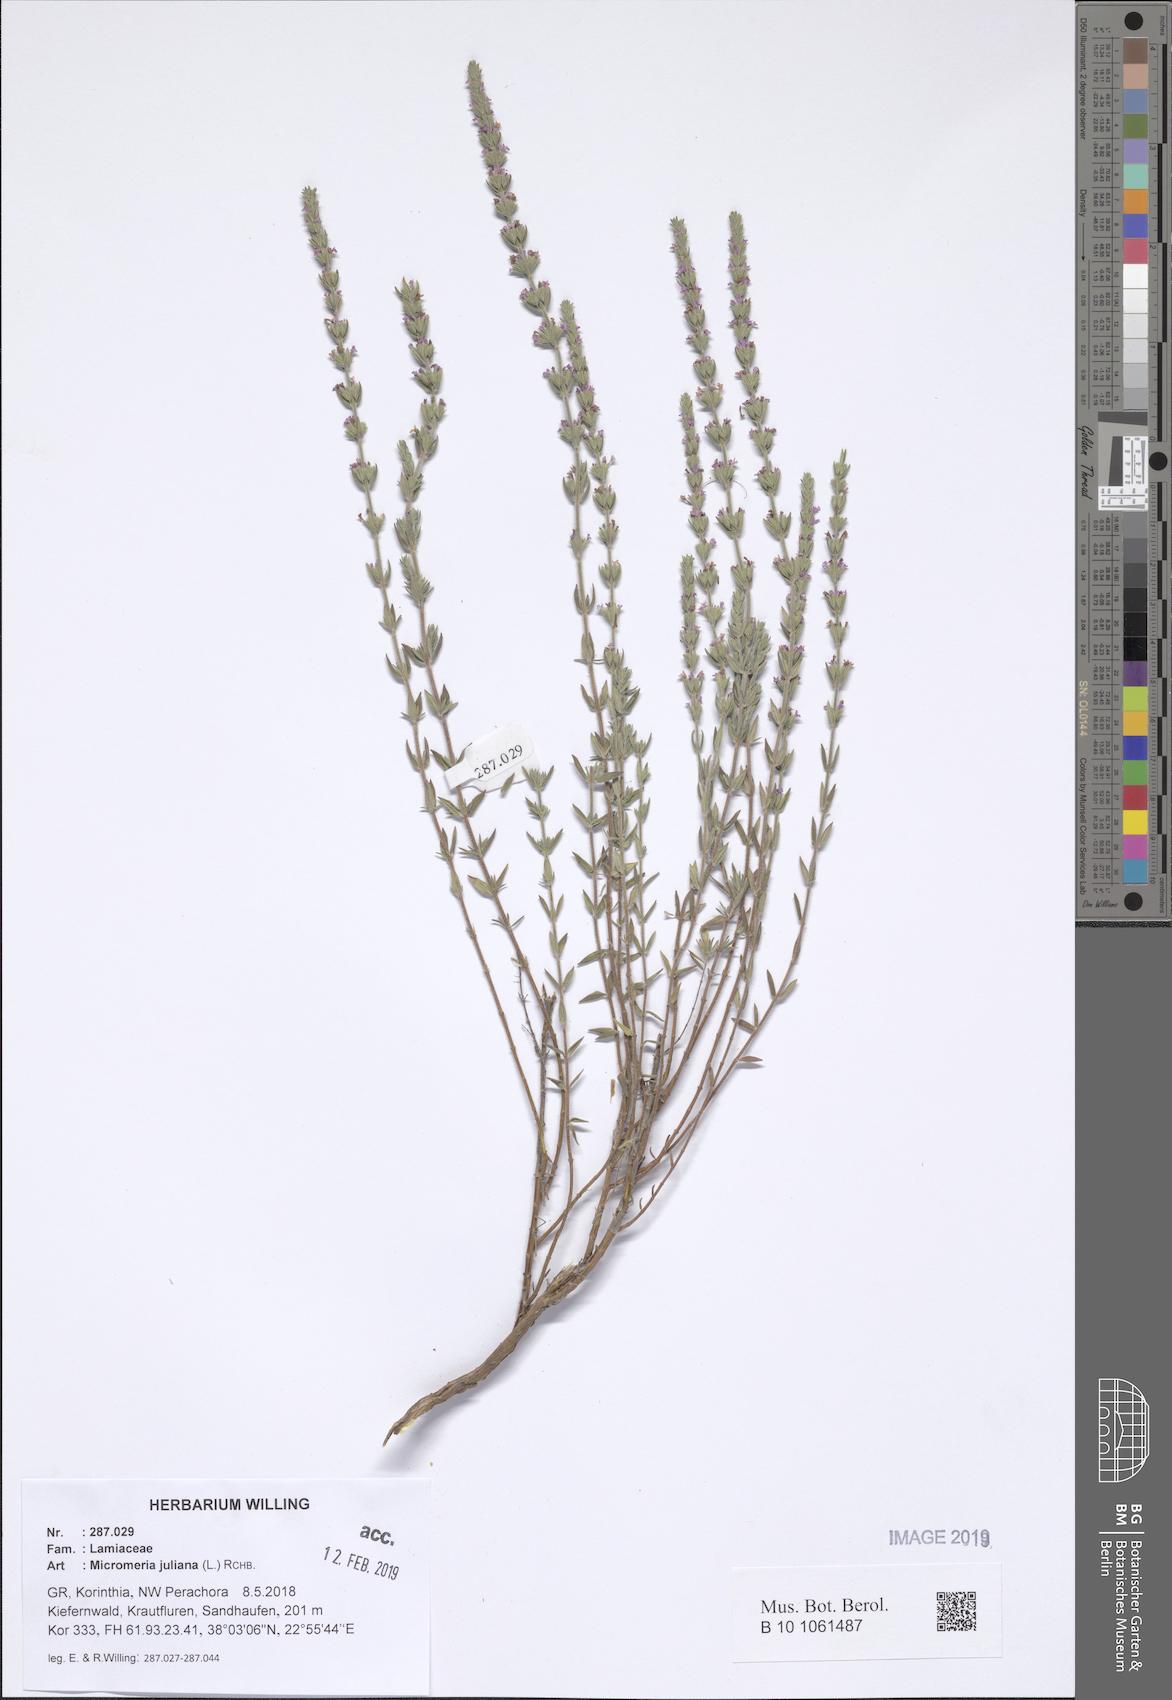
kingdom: Plantae
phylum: Tracheophyta
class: Magnoliopsida
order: Lamiales
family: Lamiaceae
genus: Micromeria
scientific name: Micromeria juliana
